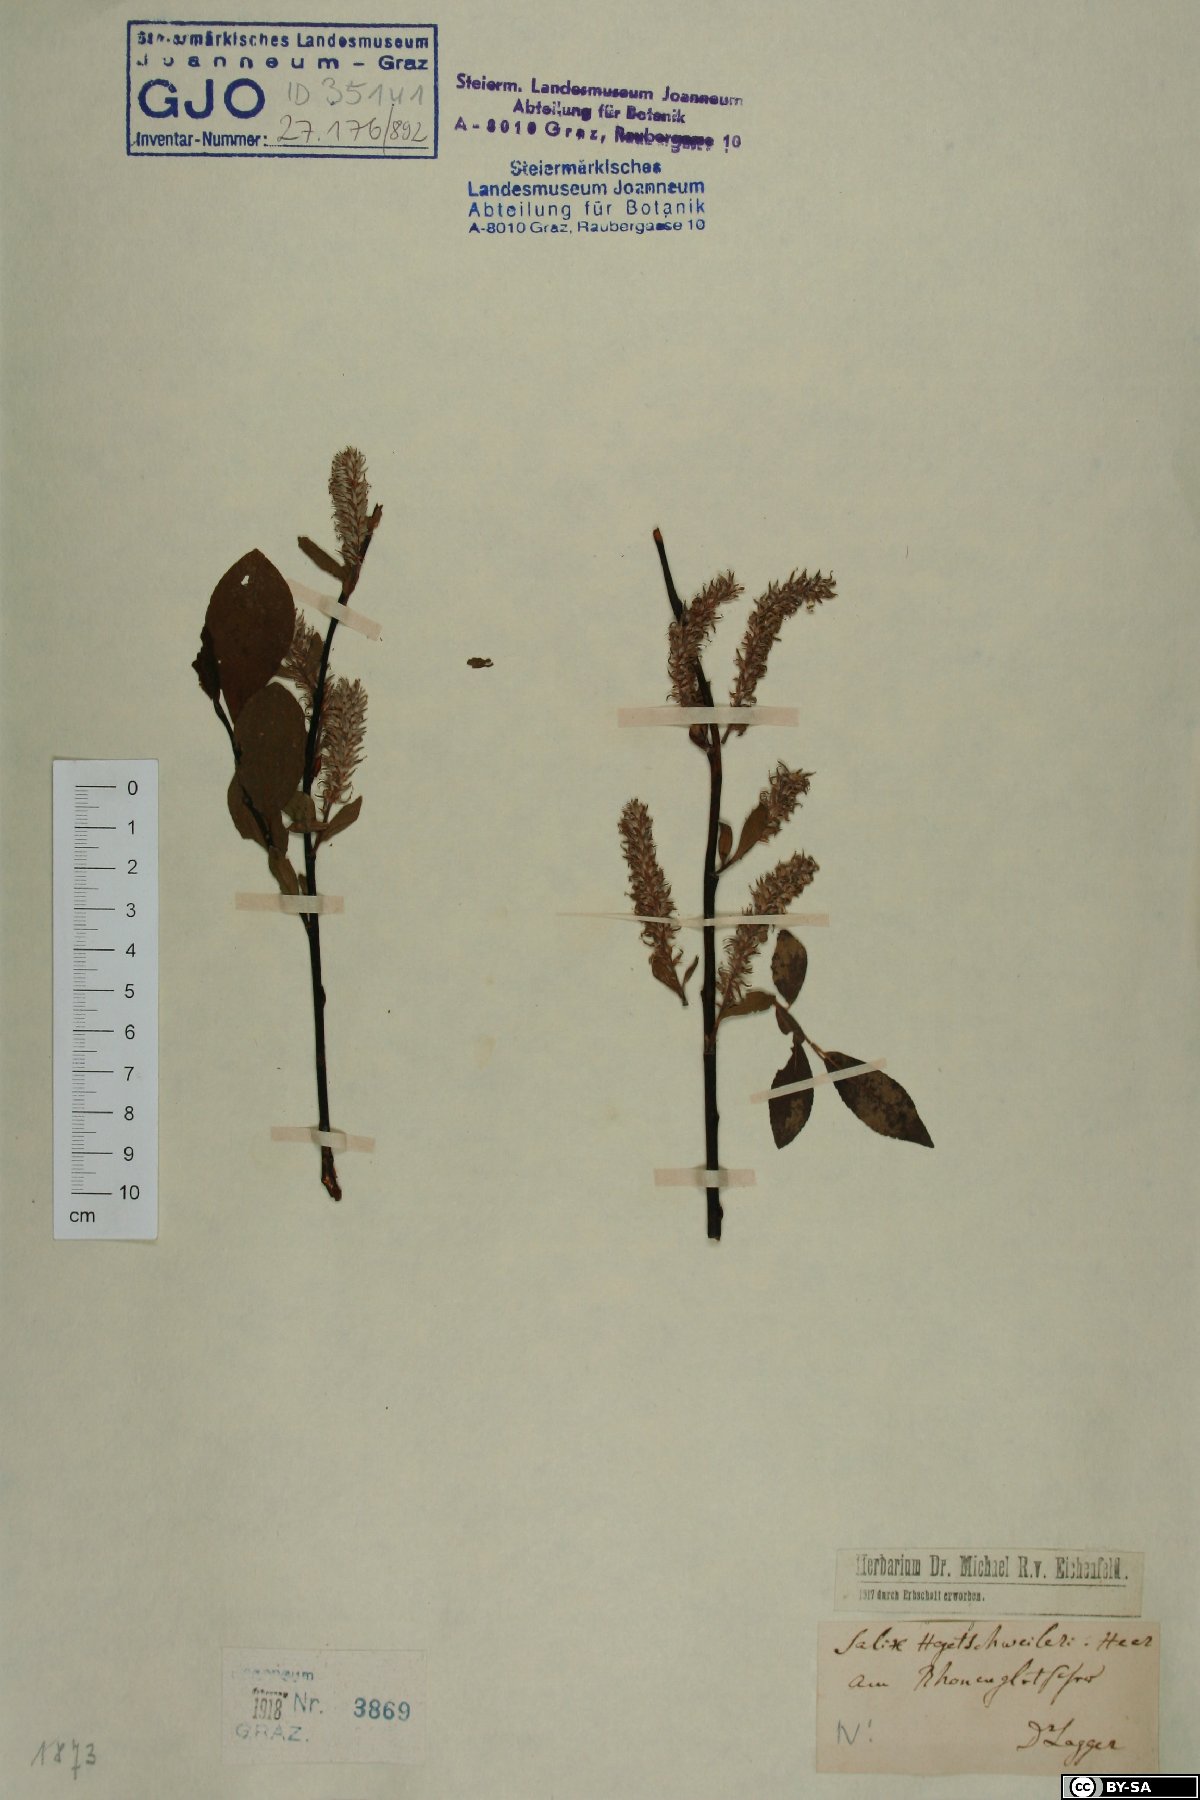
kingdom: Plantae
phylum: Tracheophyta
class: Magnoliopsida
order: Malpighiales
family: Salicaceae
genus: Salix
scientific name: Salix hegetschweileri
